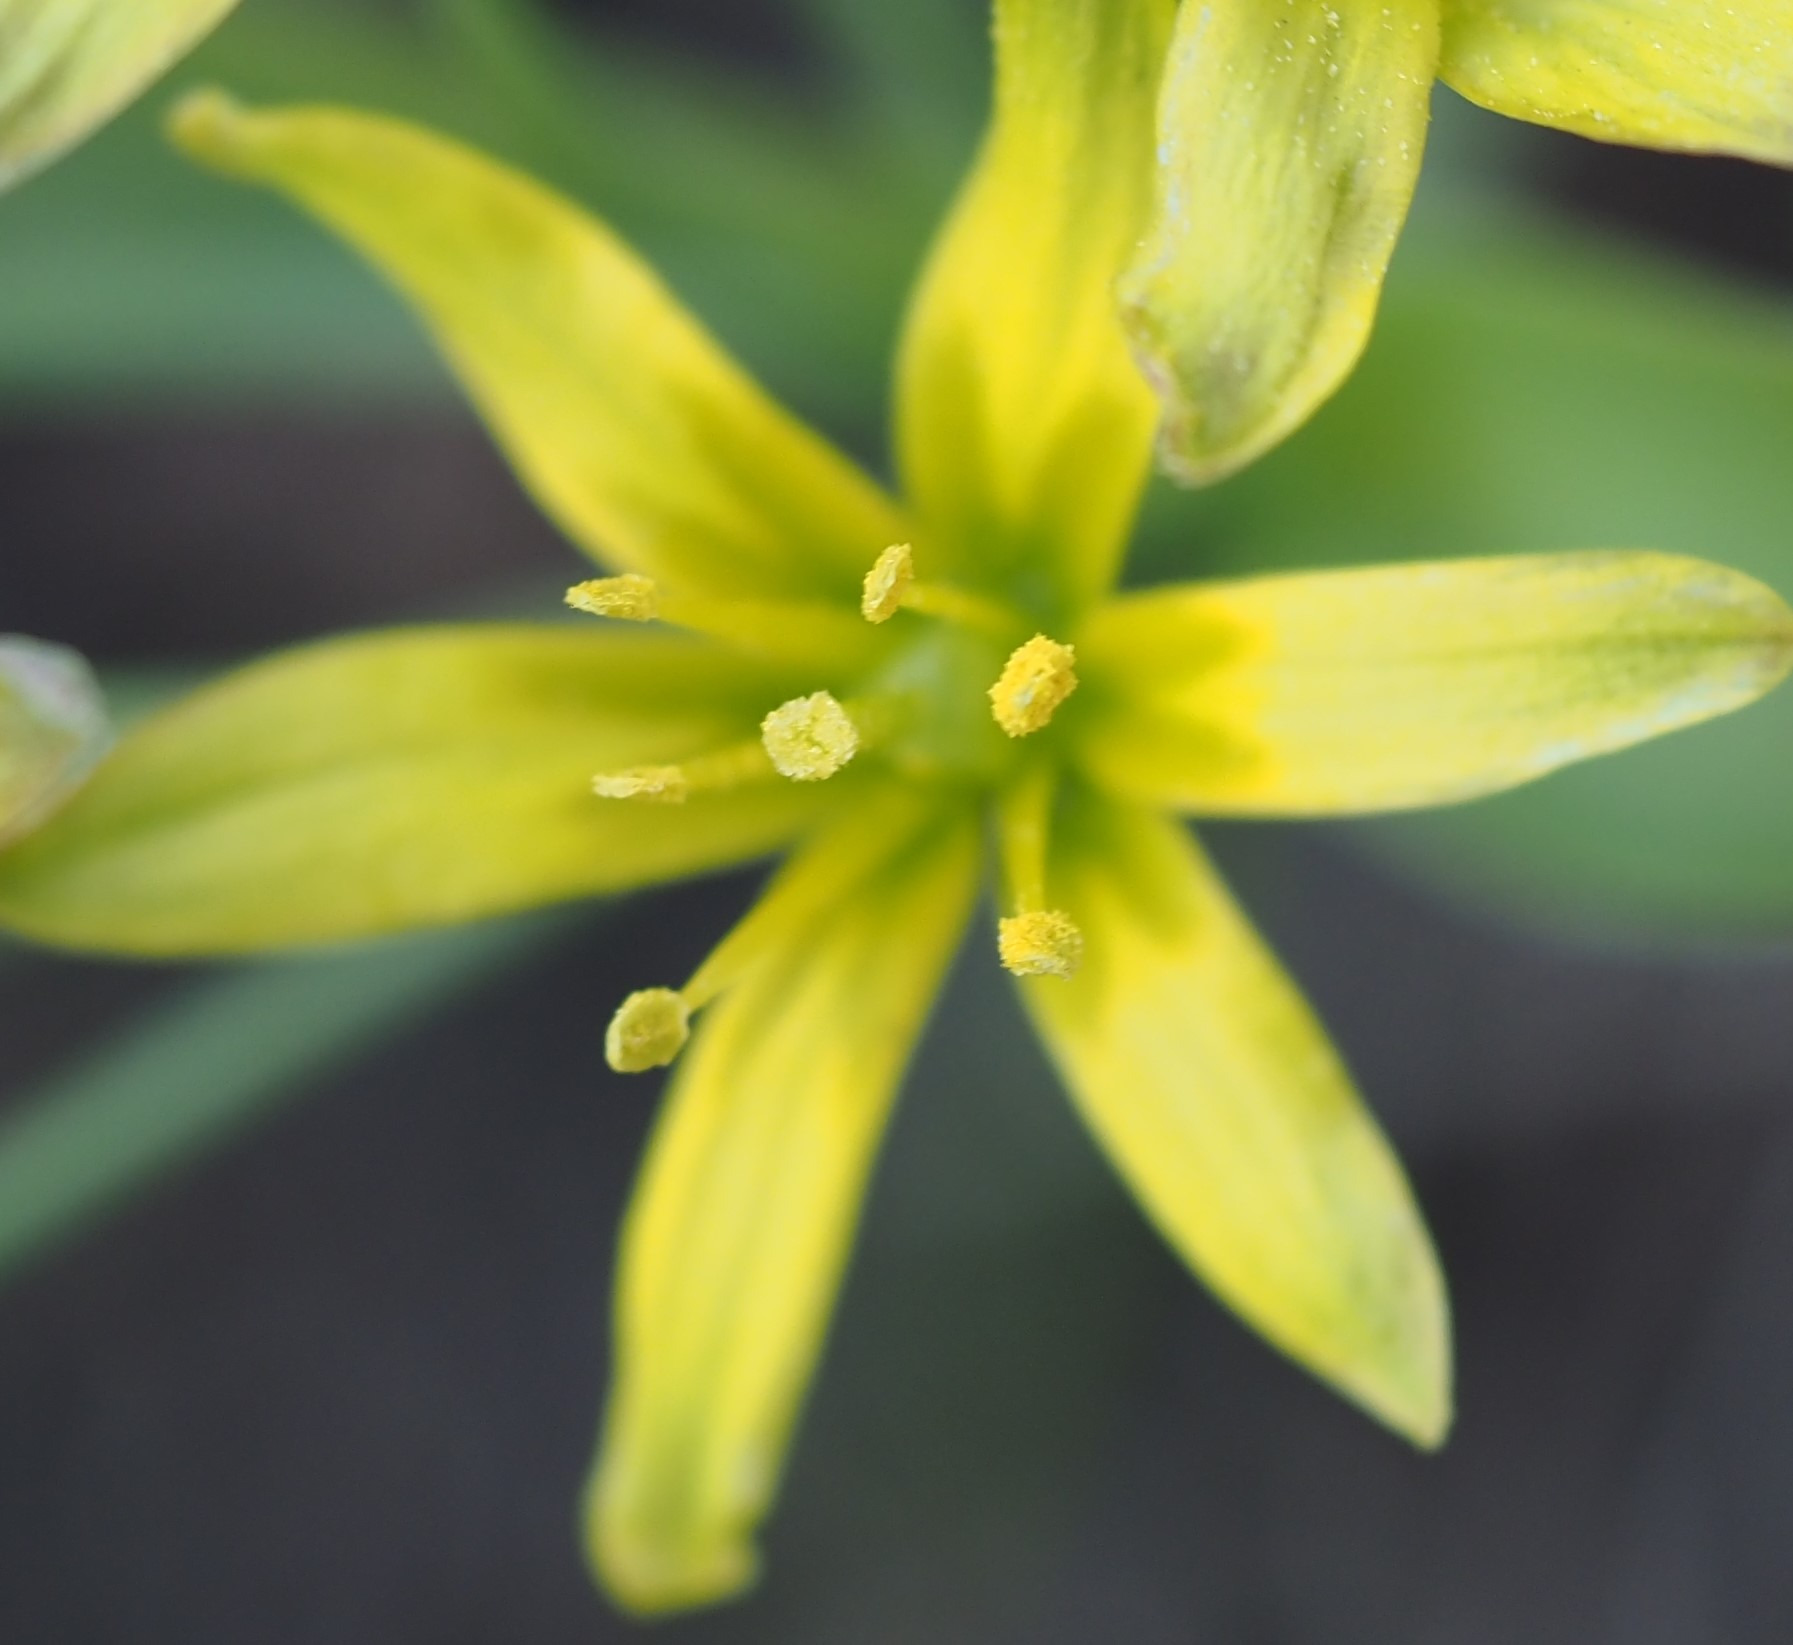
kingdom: Plantae
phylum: Tracheophyta
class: Liliopsida
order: Liliales
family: Liliaceae
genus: Gagea
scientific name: Gagea lutea
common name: Almindelig guldstjerne
